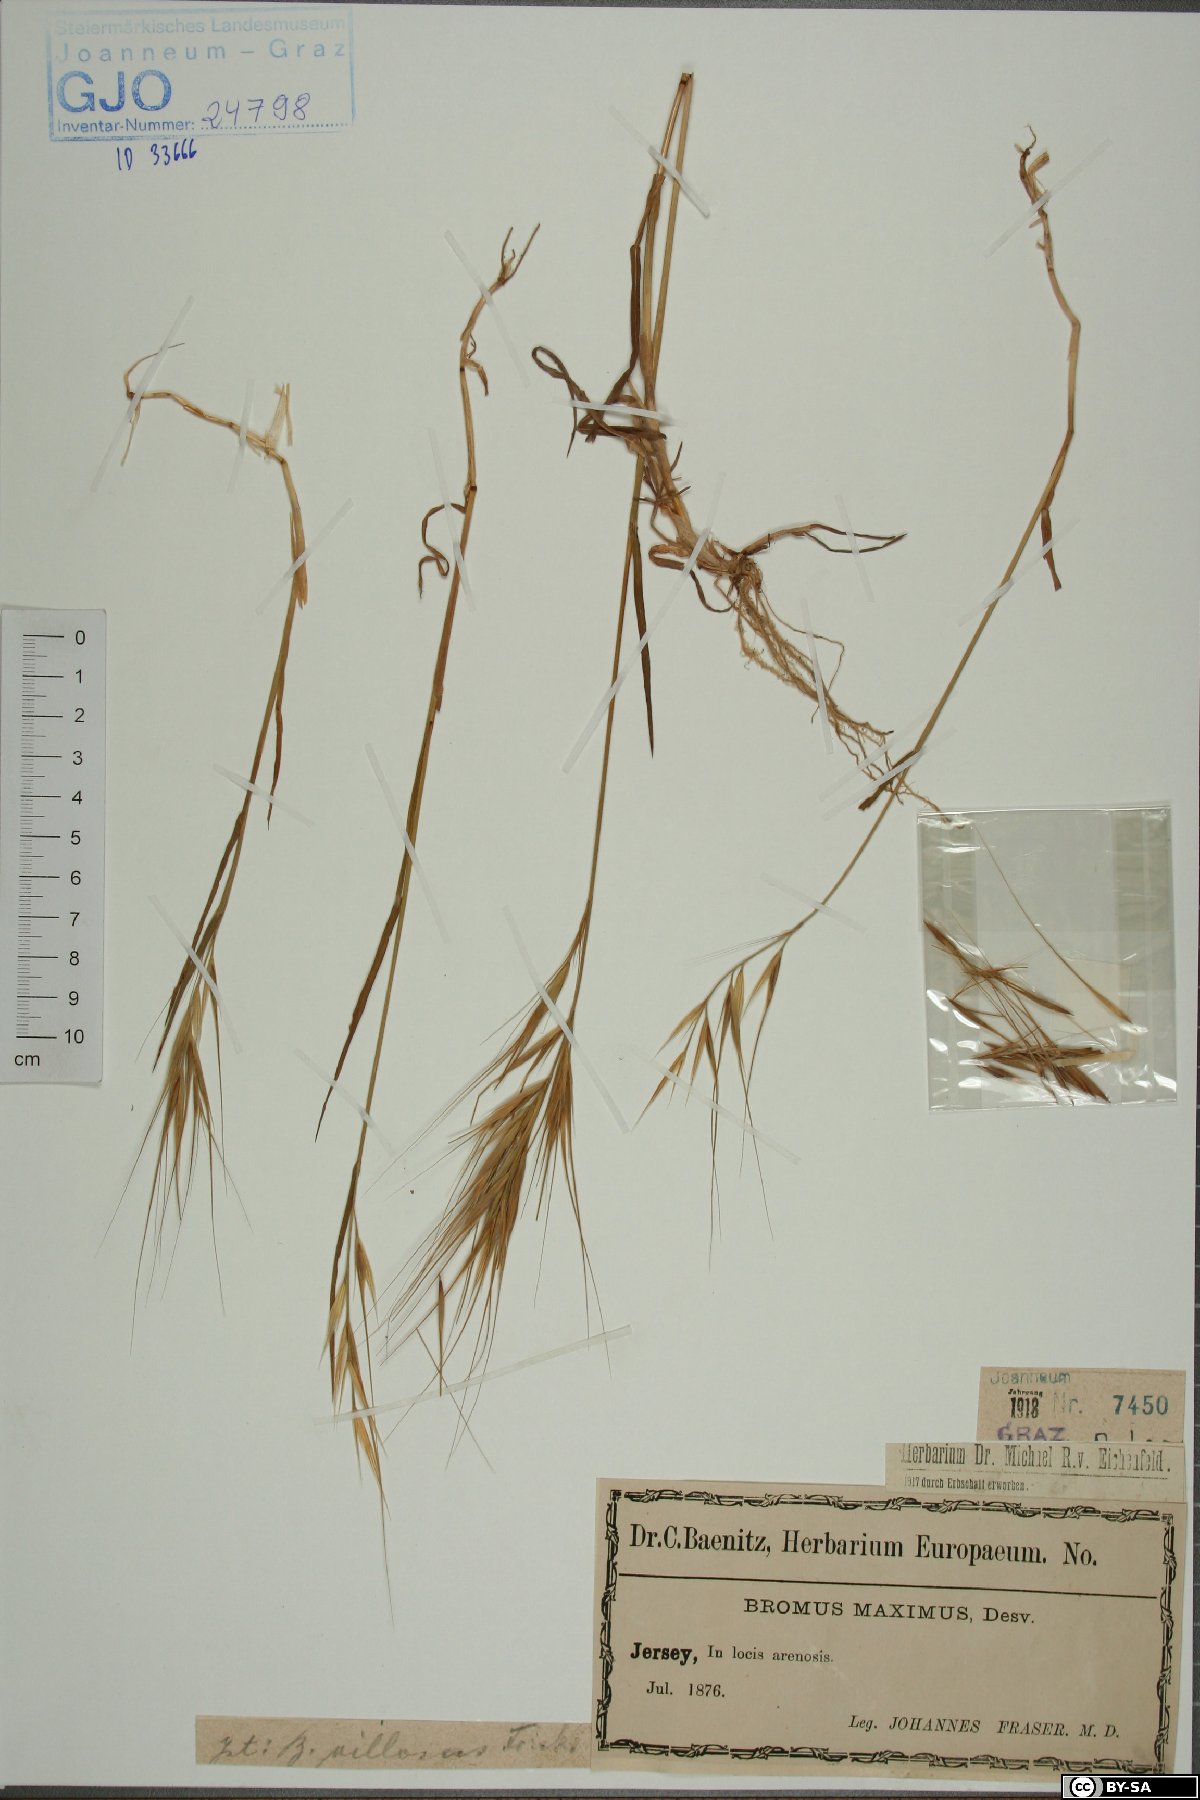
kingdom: Plantae
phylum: Tracheophyta
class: Liliopsida
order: Poales
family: Poaceae
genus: Bromus
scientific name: Bromus rigidus
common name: Ripgut brome
